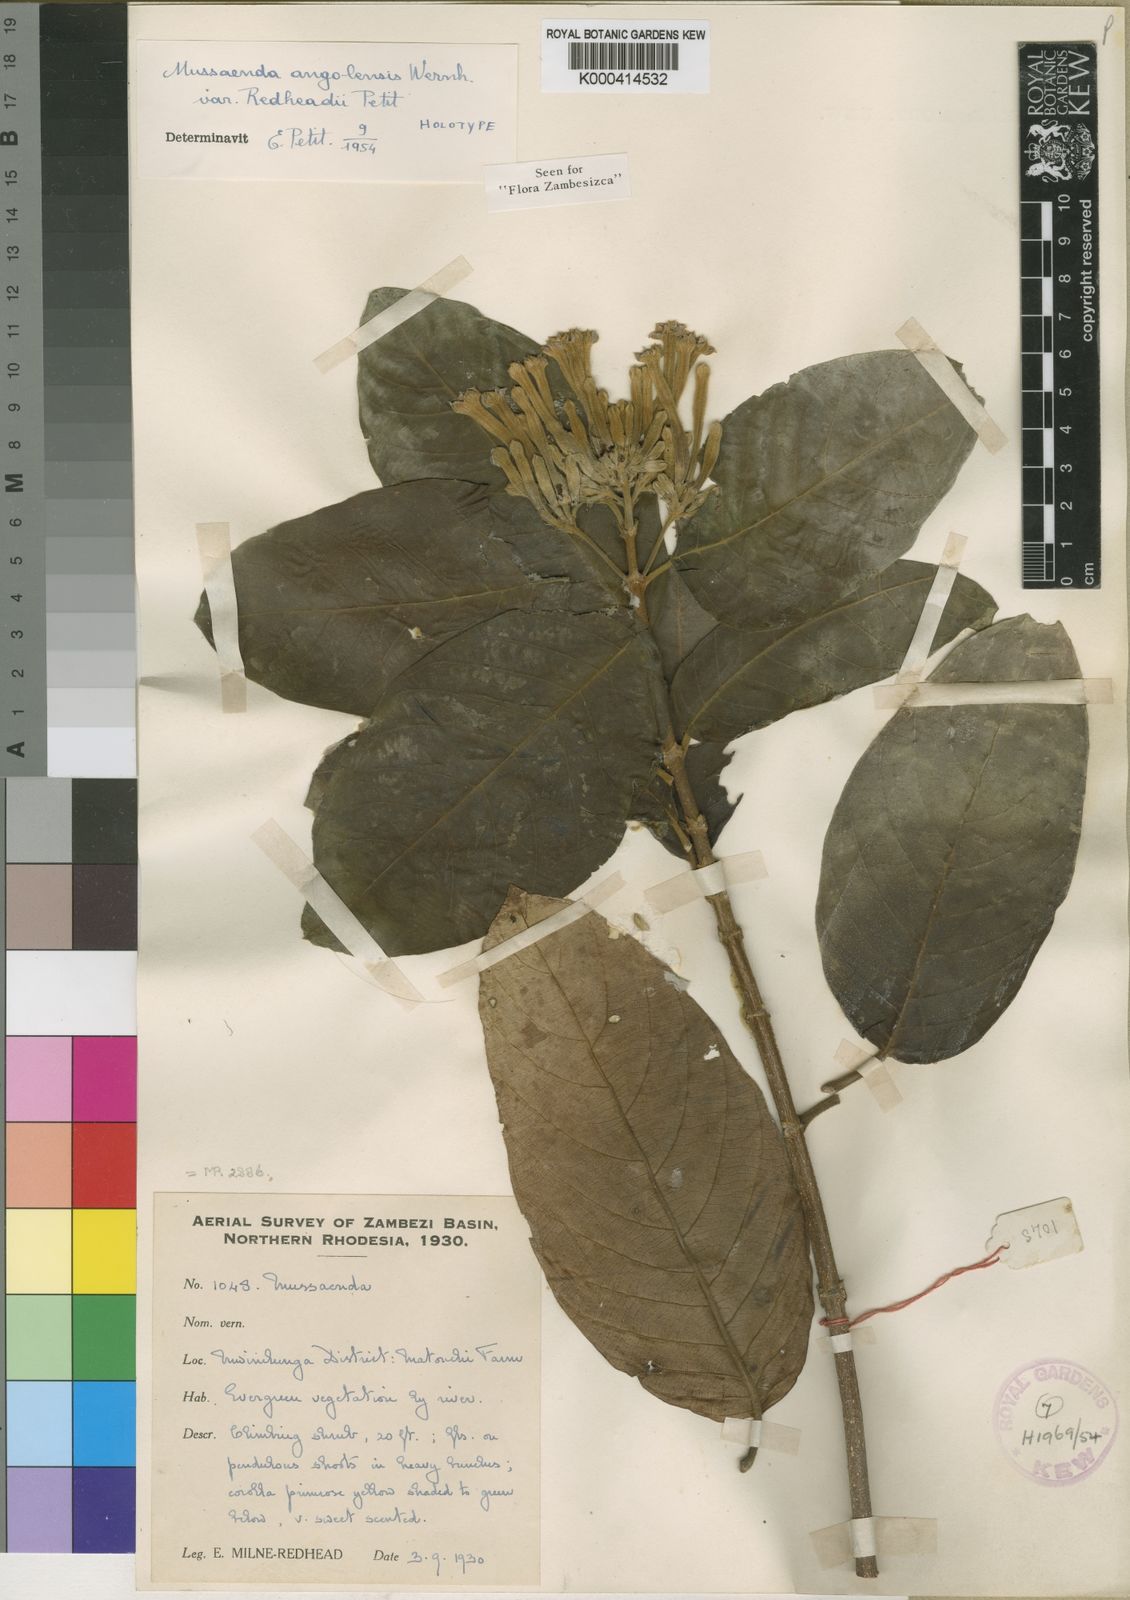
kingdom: Plantae
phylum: Tracheophyta
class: Magnoliopsida
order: Gentianales
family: Rubiaceae
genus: Mussaenda
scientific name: Mussaenda rivularis
